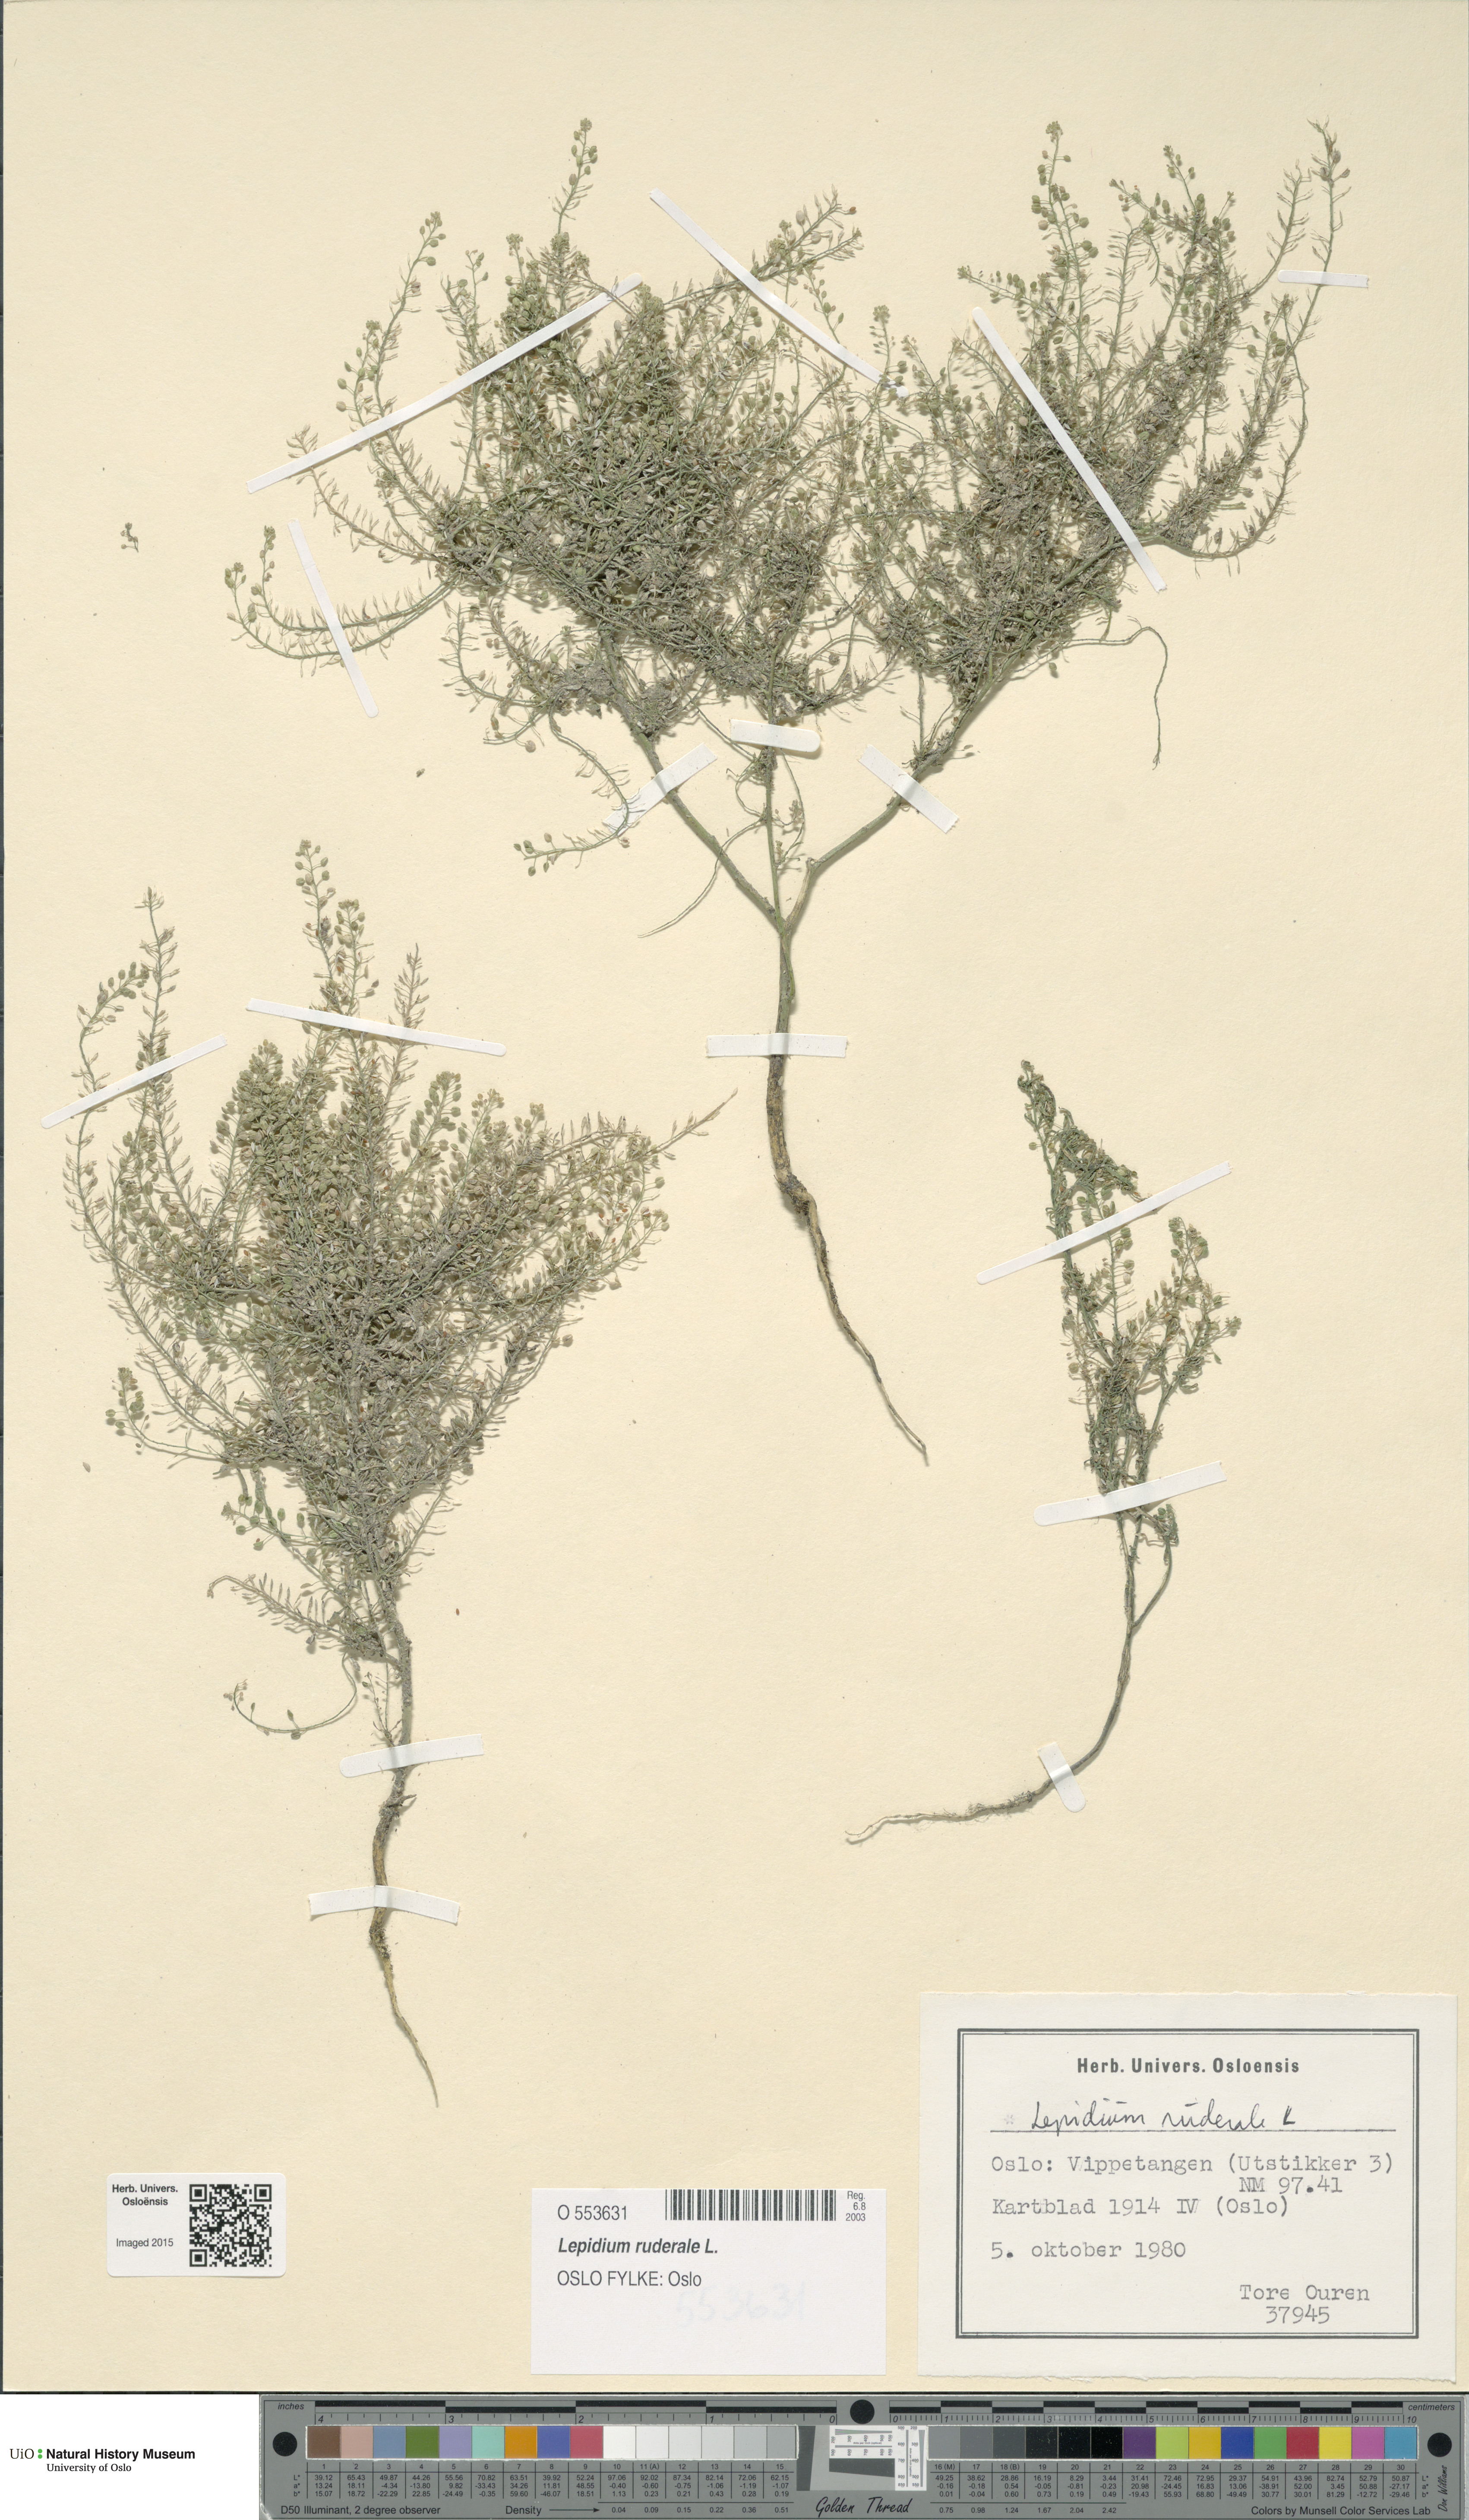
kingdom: Plantae
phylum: Tracheophyta
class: Magnoliopsida
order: Brassicales
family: Brassicaceae
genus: Lepidium
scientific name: Lepidium ruderale
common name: Narrow-leaved pepperwort
